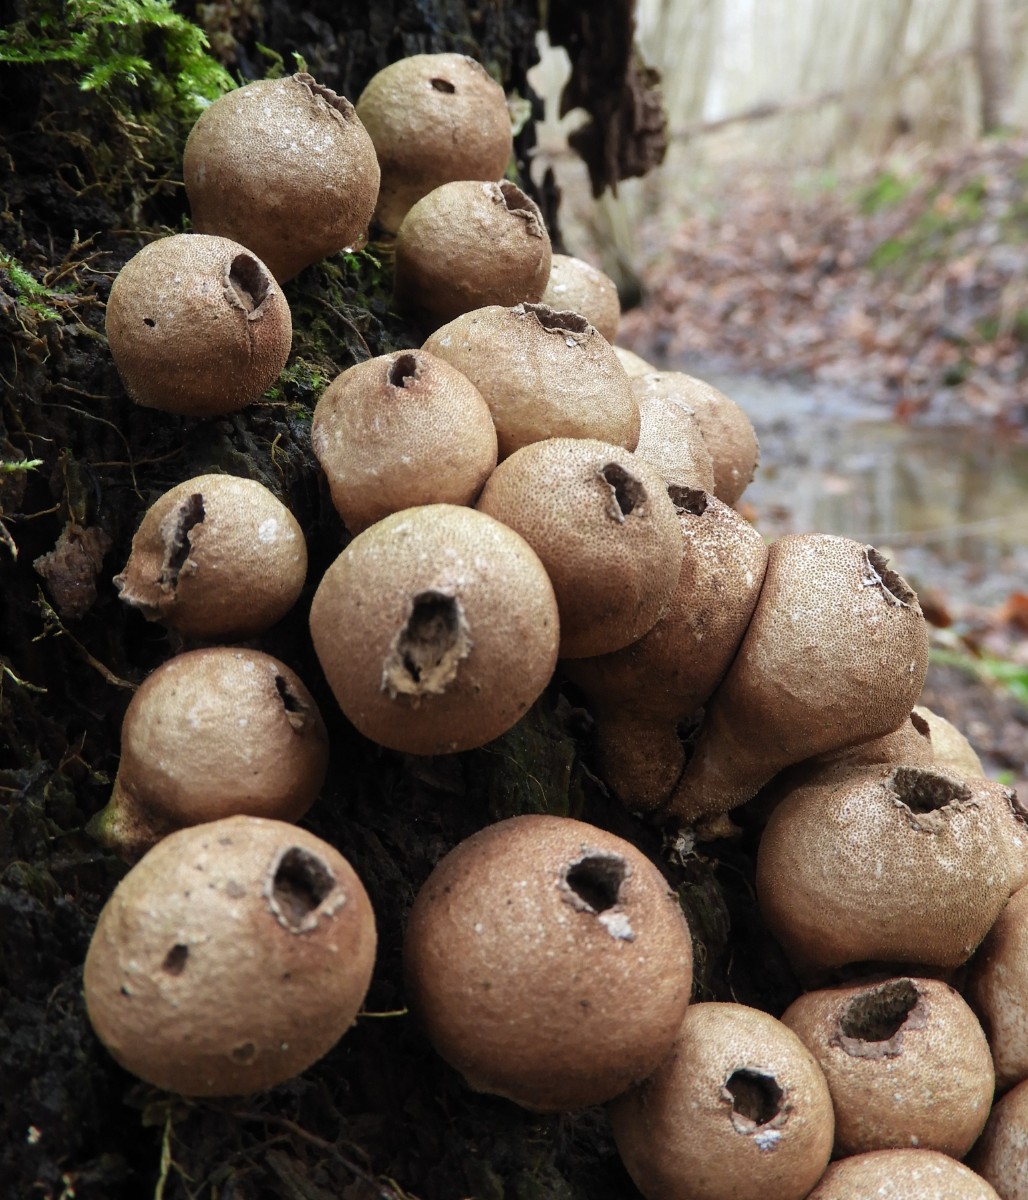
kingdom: Fungi
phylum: Basidiomycota
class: Agaricomycetes
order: Agaricales
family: Lycoperdaceae
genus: Apioperdon
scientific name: Apioperdon pyriforme
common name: pære-støvbold
